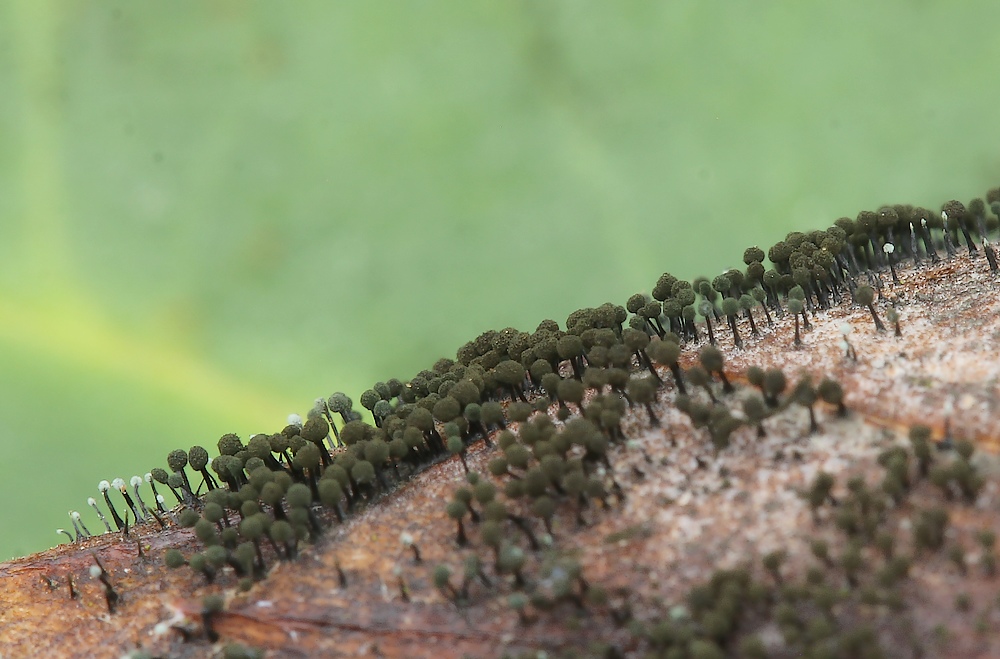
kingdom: Fungi
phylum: Ascomycota
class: Dothideomycetes
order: Pleosporales
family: Melanommataceae
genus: Seifertia
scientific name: Seifertia azaleae
